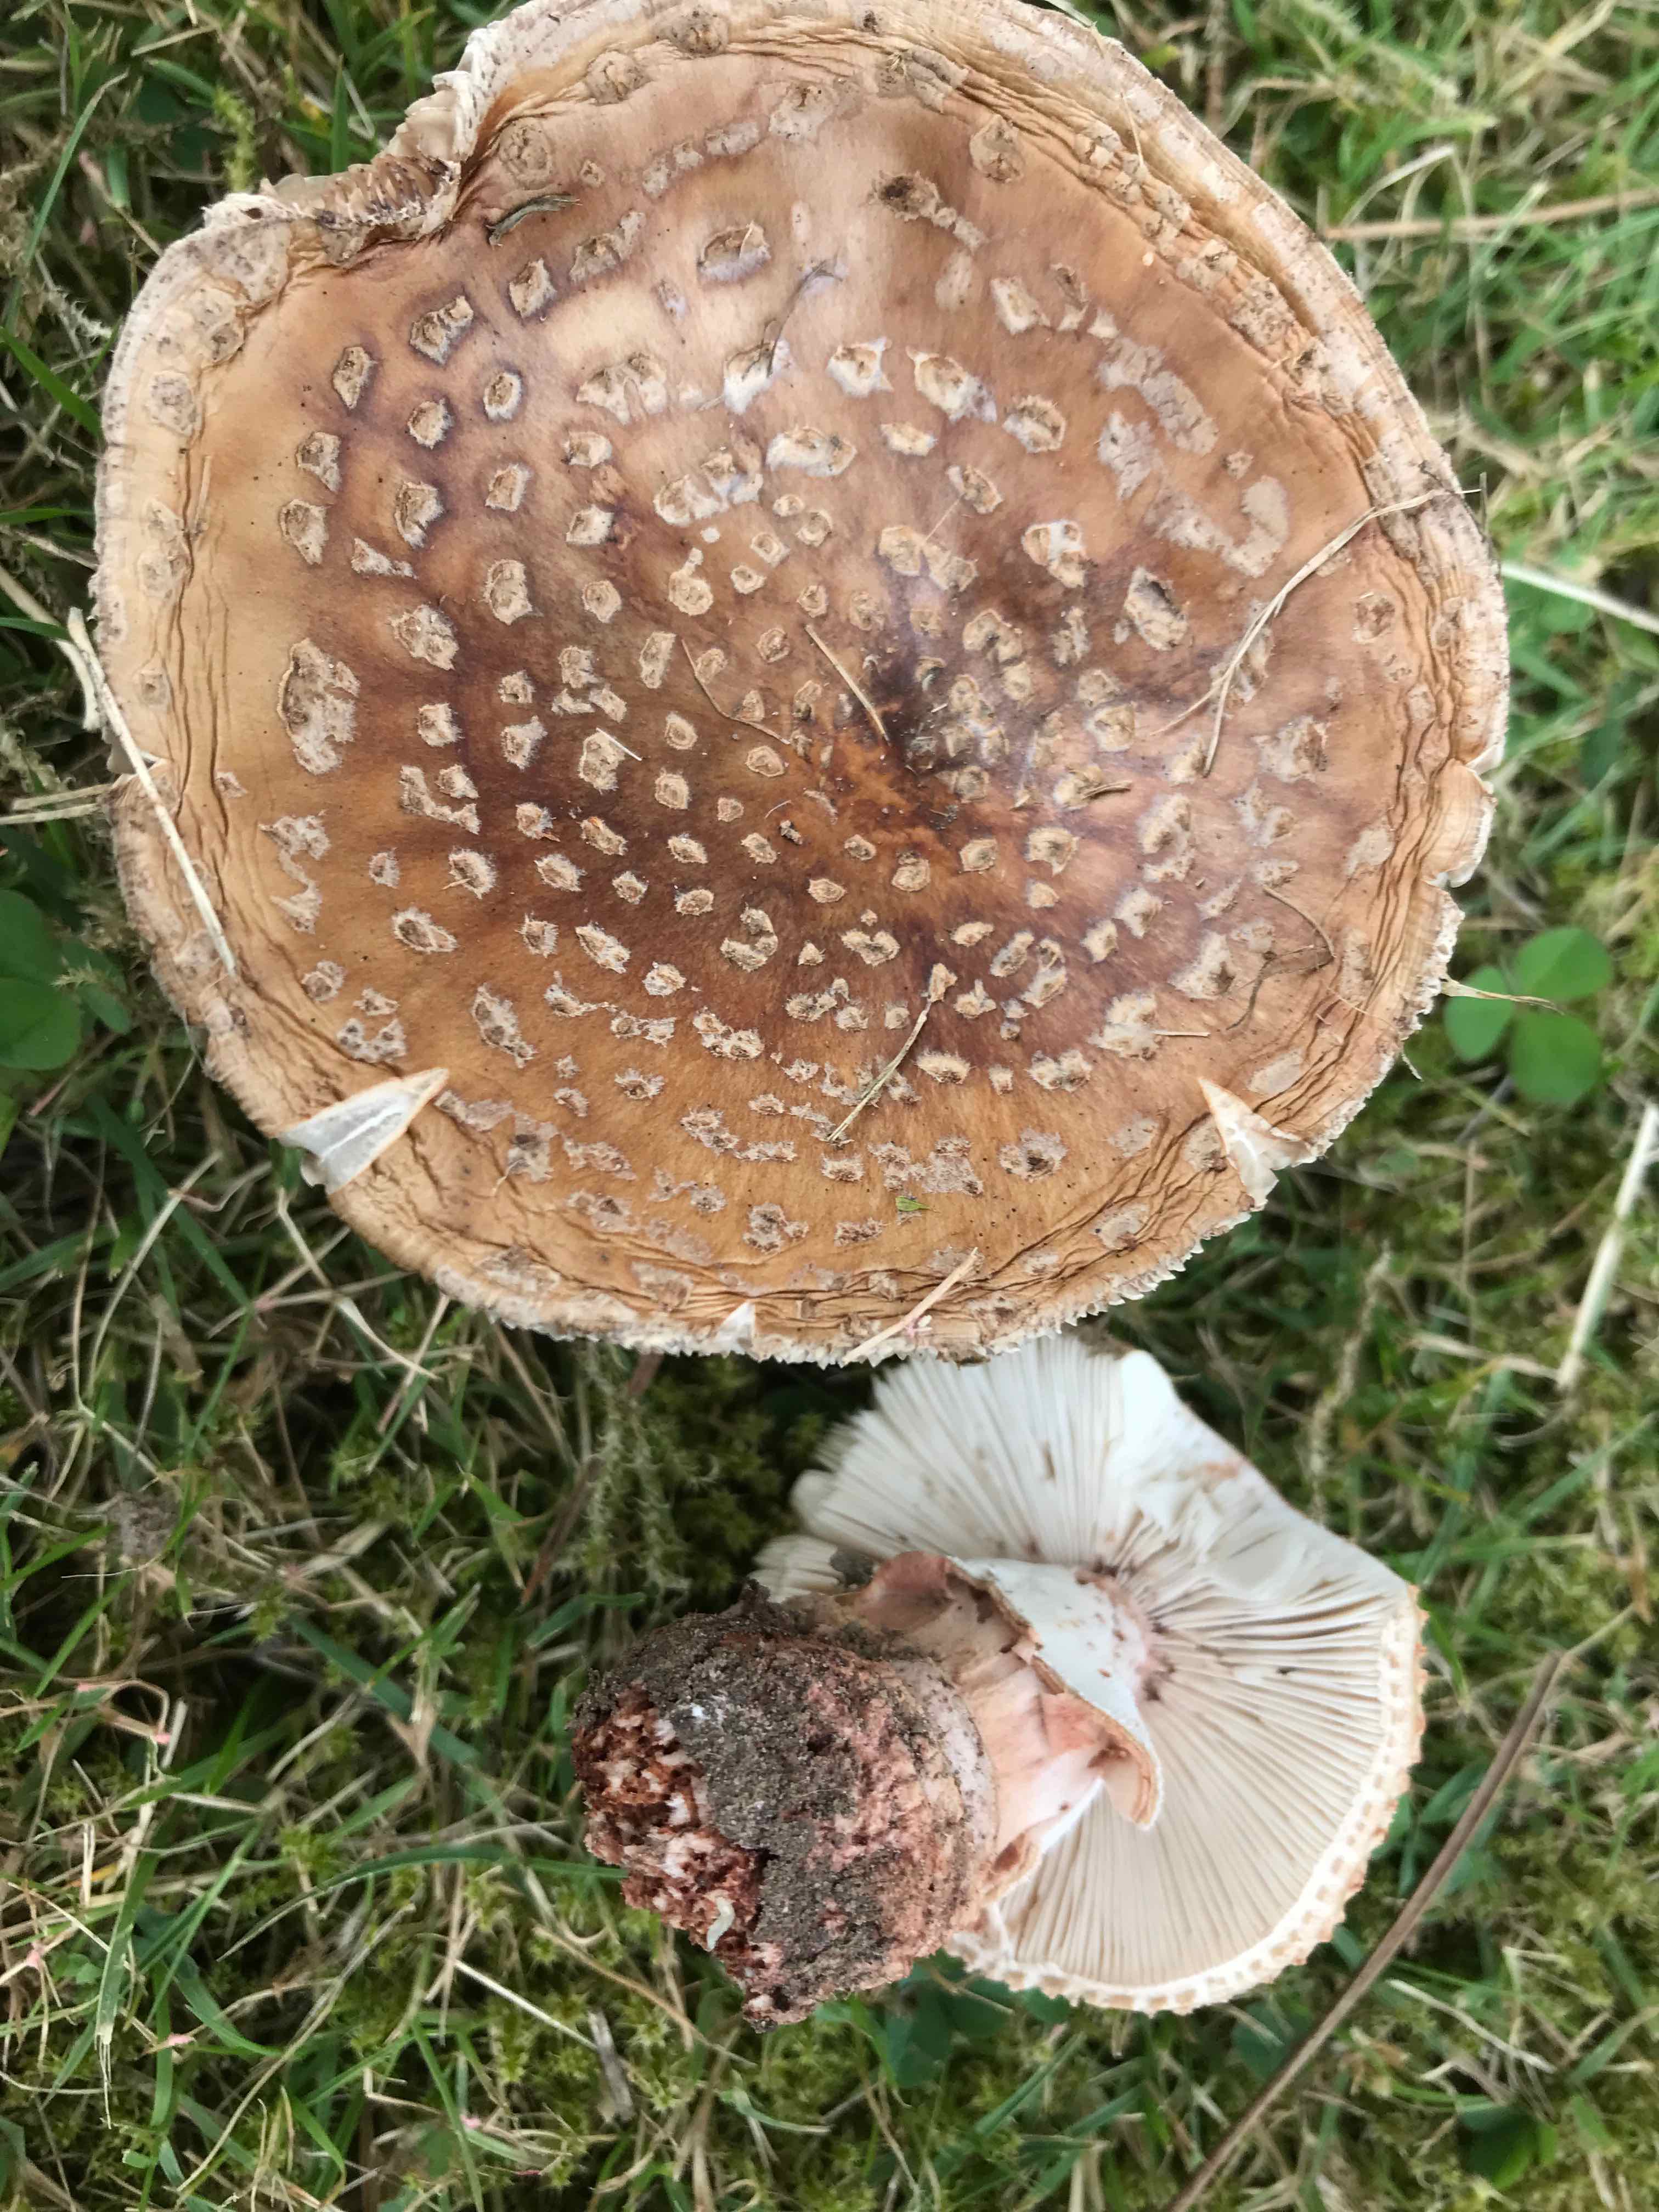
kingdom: Fungi
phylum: Basidiomycota
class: Agaricomycetes
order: Agaricales
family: Amanitaceae
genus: Amanita
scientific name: Amanita rubescens
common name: rødmende fluesvamp
